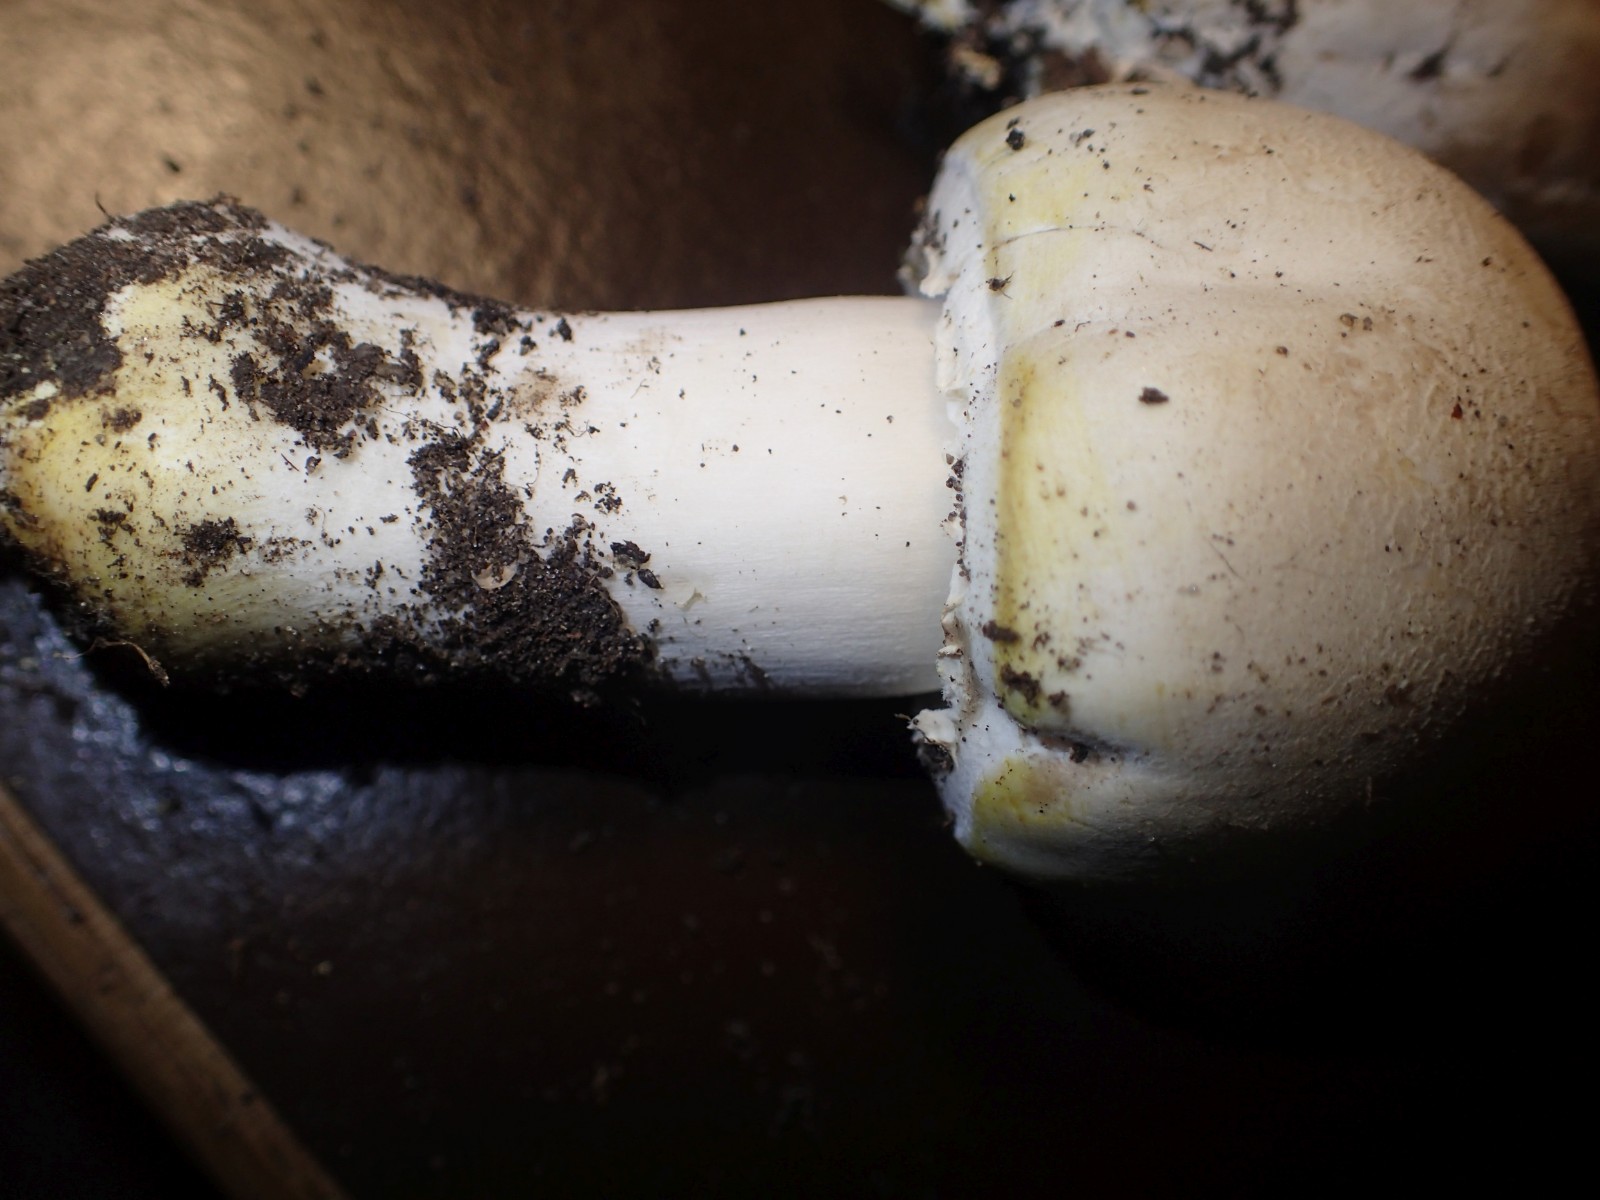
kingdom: Fungi
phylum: Basidiomycota
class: Agaricomycetes
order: Agaricales
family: Agaricaceae
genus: Agaricus
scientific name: Agaricus xanthodermus
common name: karbol-champignon
